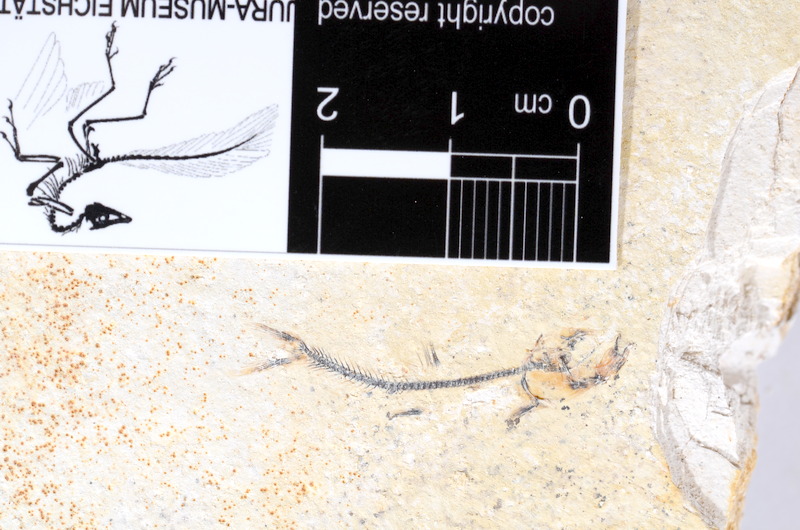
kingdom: Animalia
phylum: Chordata
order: Salmoniformes
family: Orthogonikleithridae
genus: Orthogonikleithrus
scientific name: Orthogonikleithrus hoelli
